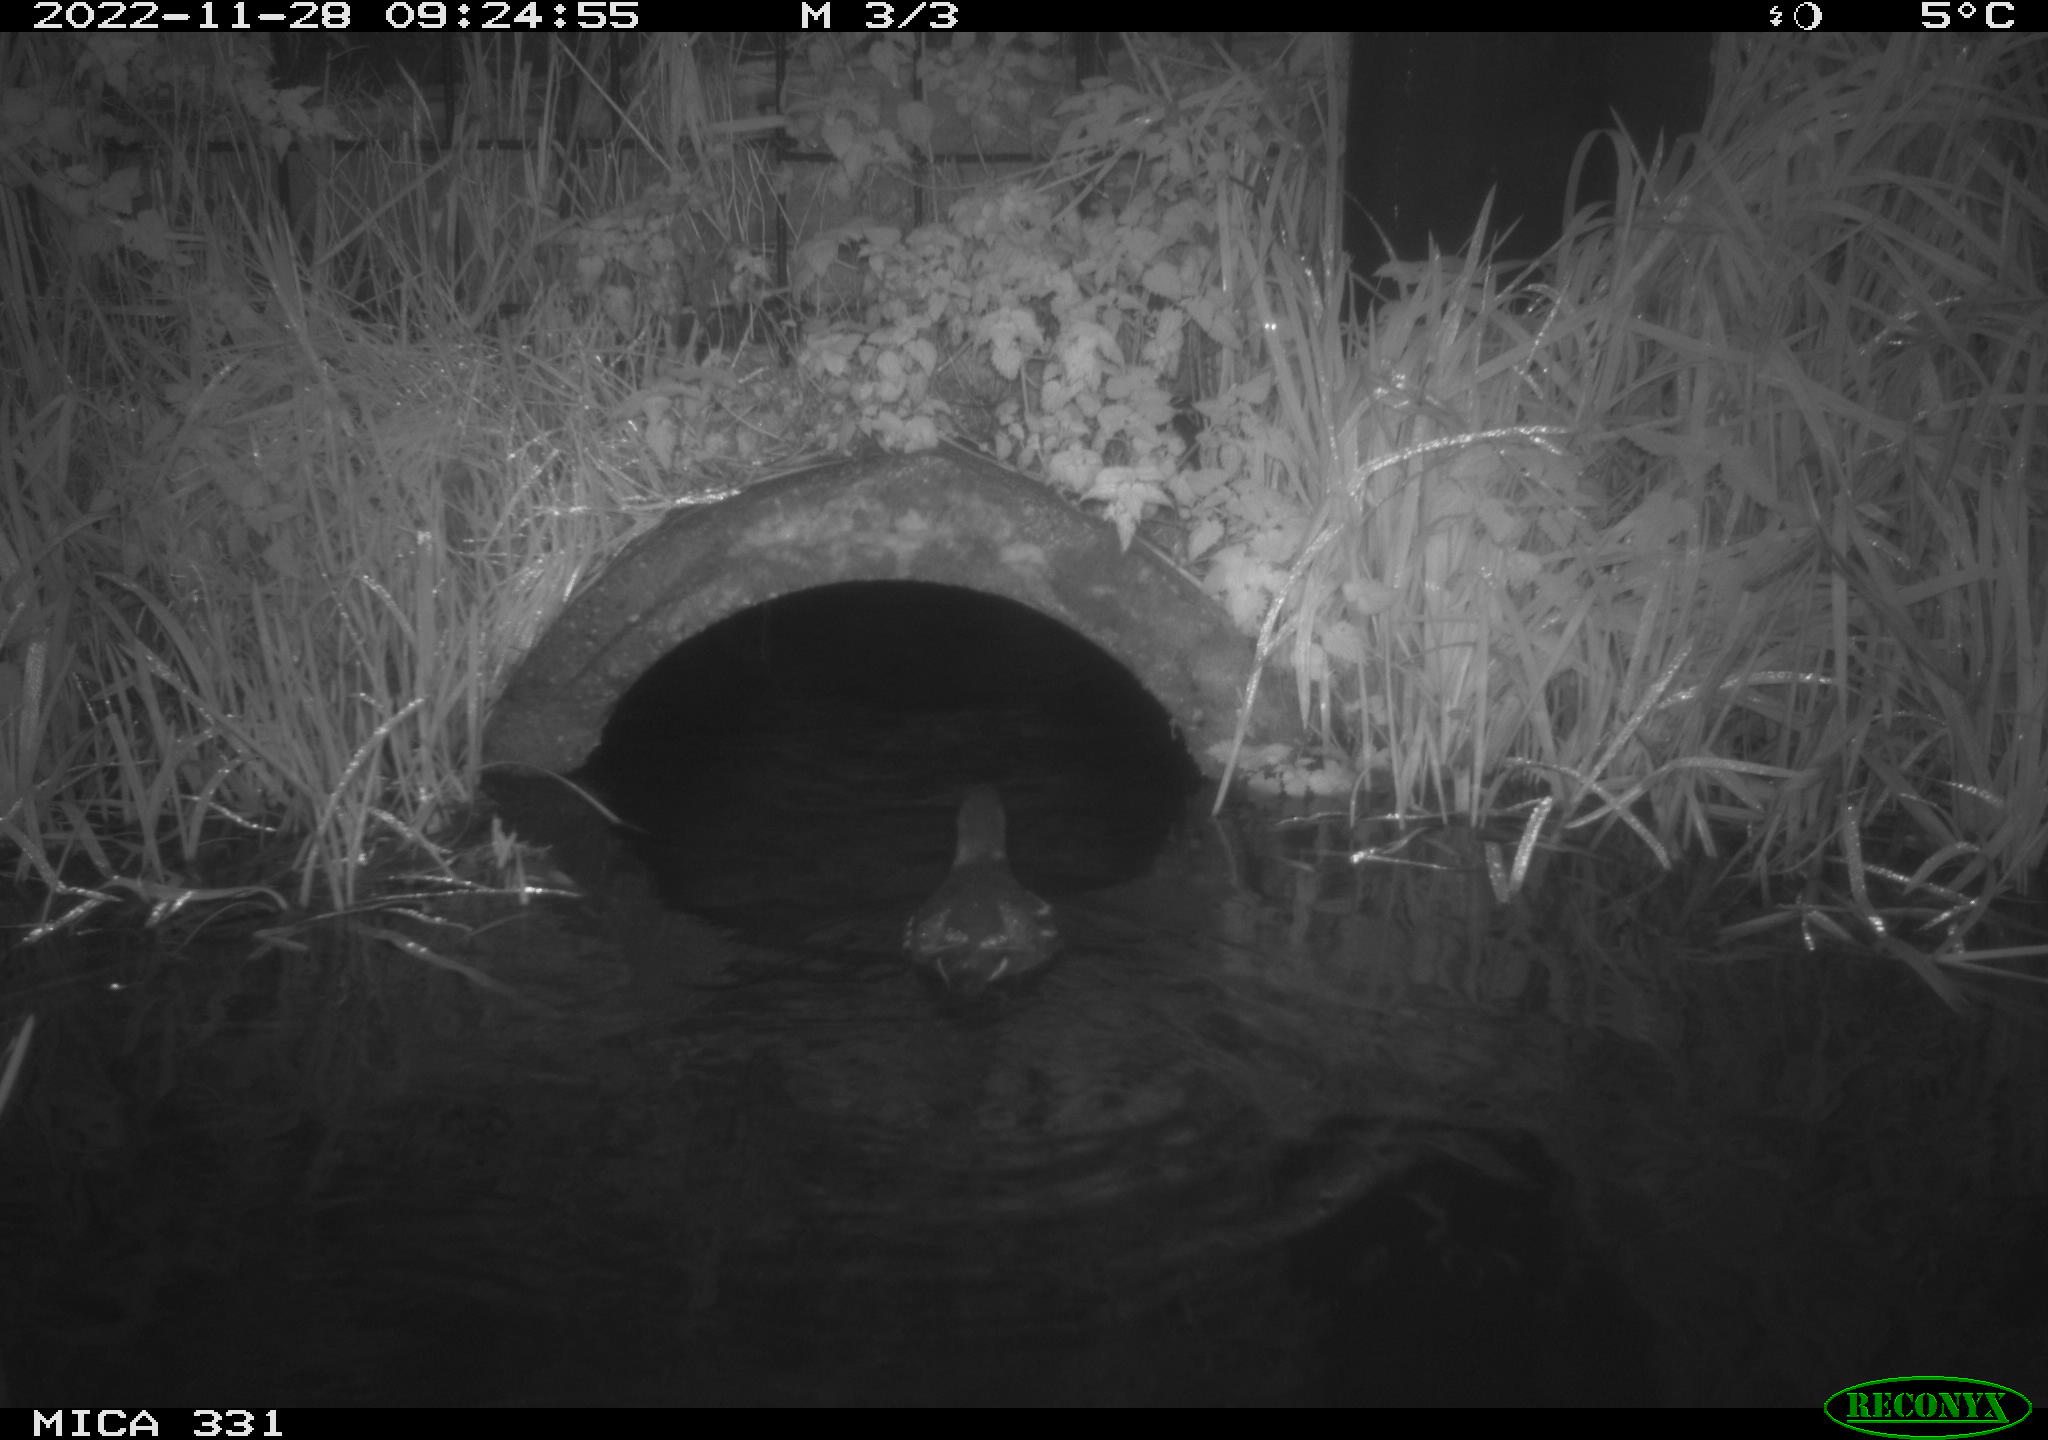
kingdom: Animalia
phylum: Chordata
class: Aves
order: Gruiformes
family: Rallidae
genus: Gallinula
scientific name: Gallinula chloropus
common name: Common moorhen
